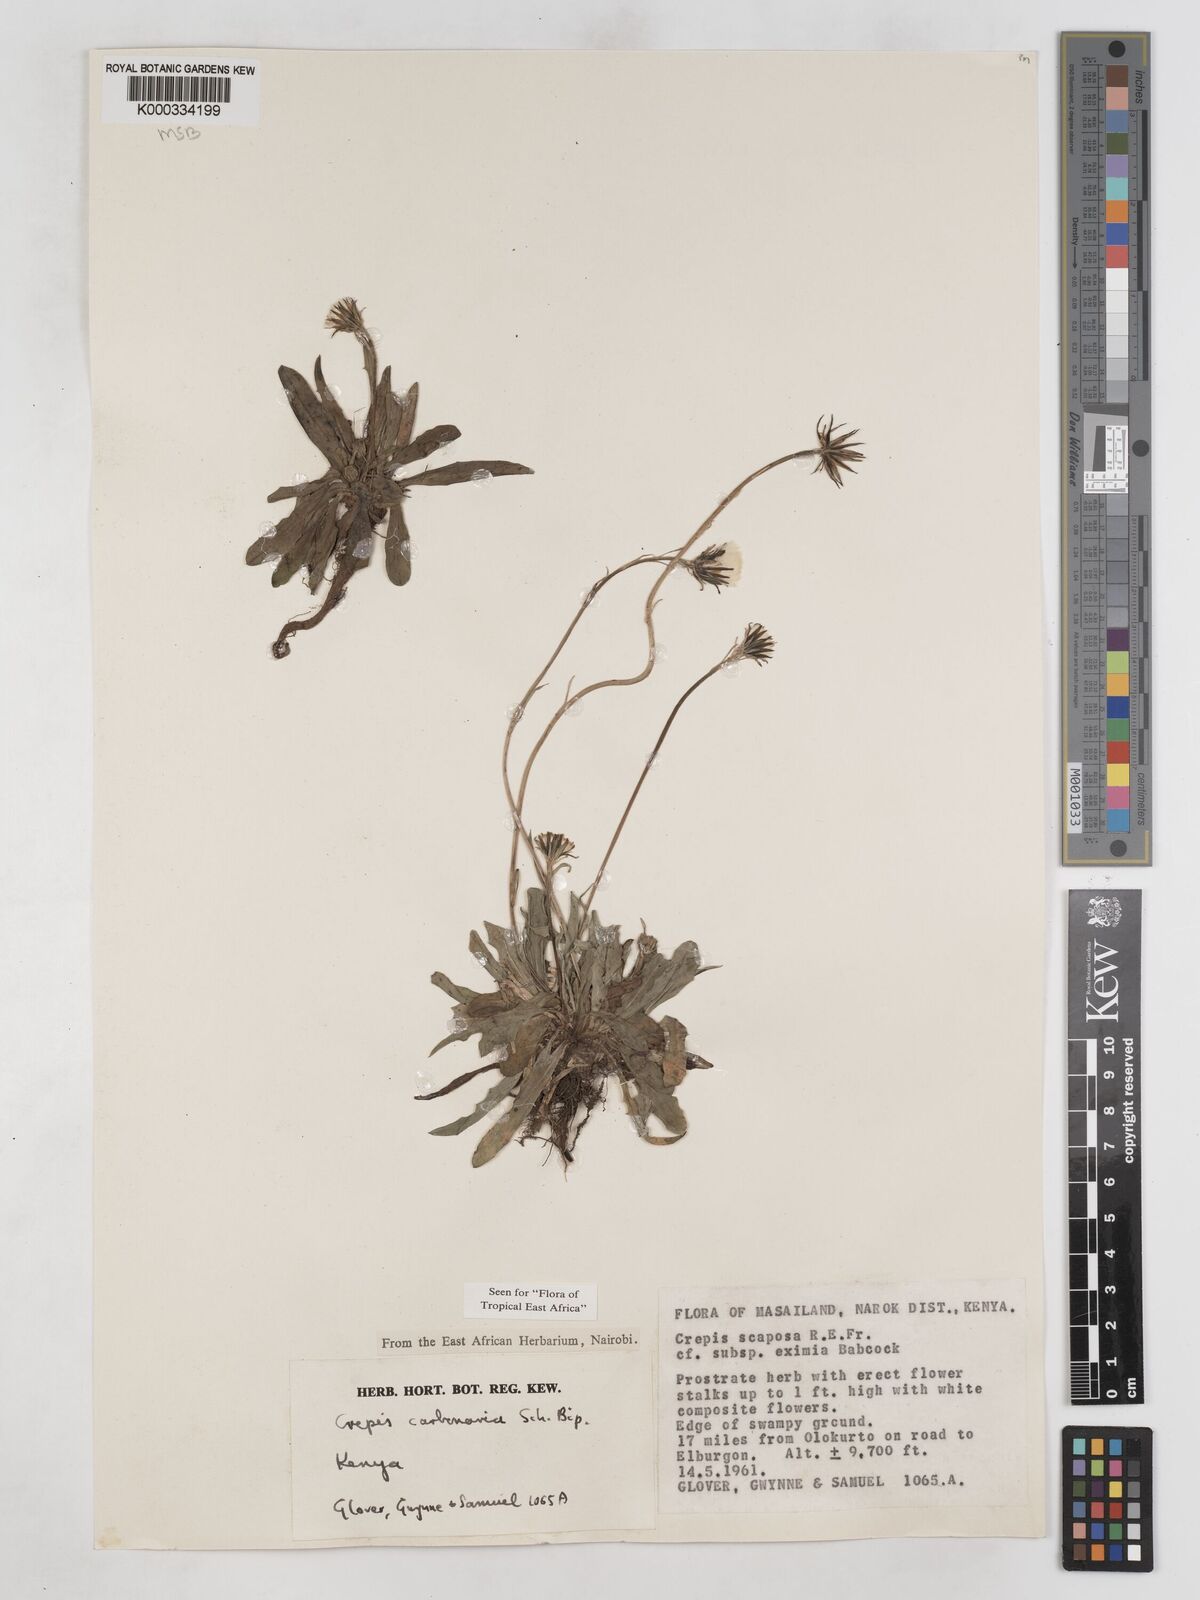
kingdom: Plantae
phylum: Tracheophyta
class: Magnoliopsida
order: Asterales
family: Asteraceae
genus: Crepis
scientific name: Crepis carbonaria
